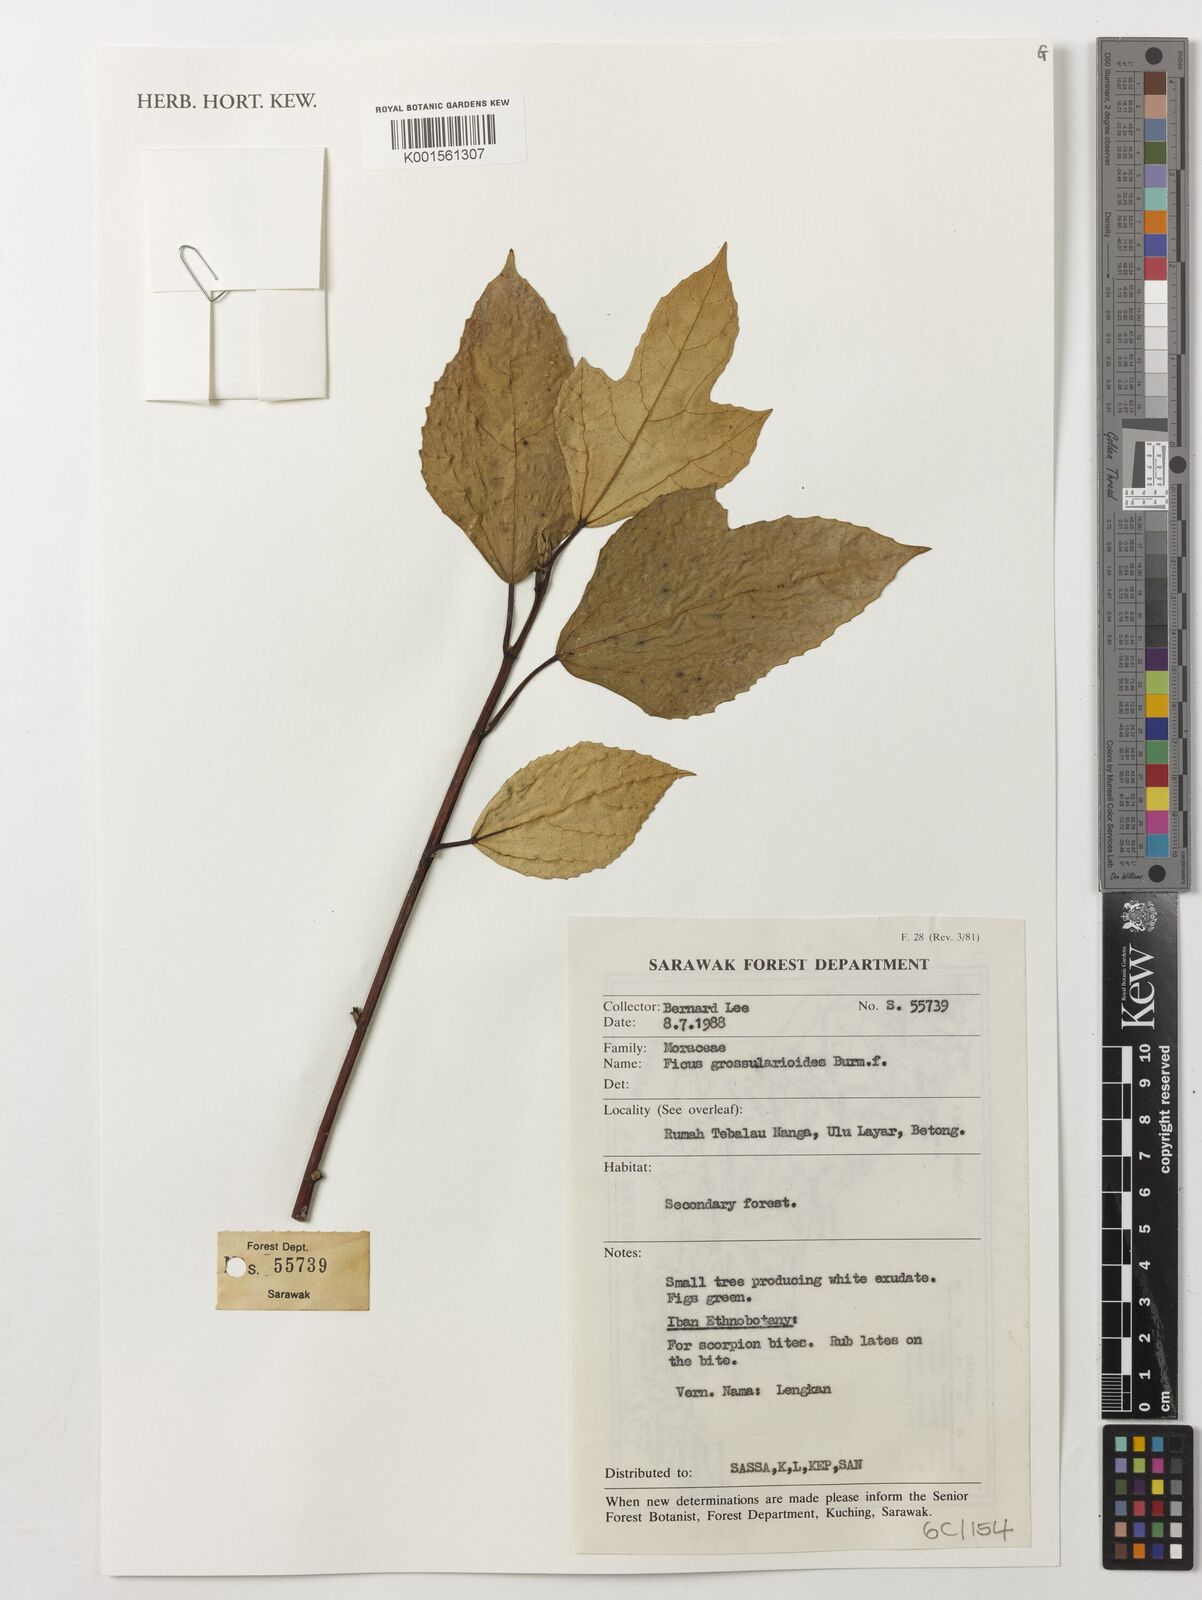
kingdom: Plantae
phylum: Tracheophyta
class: Magnoliopsida
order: Rosales
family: Moraceae
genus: Ficus
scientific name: Ficus grossularioides
